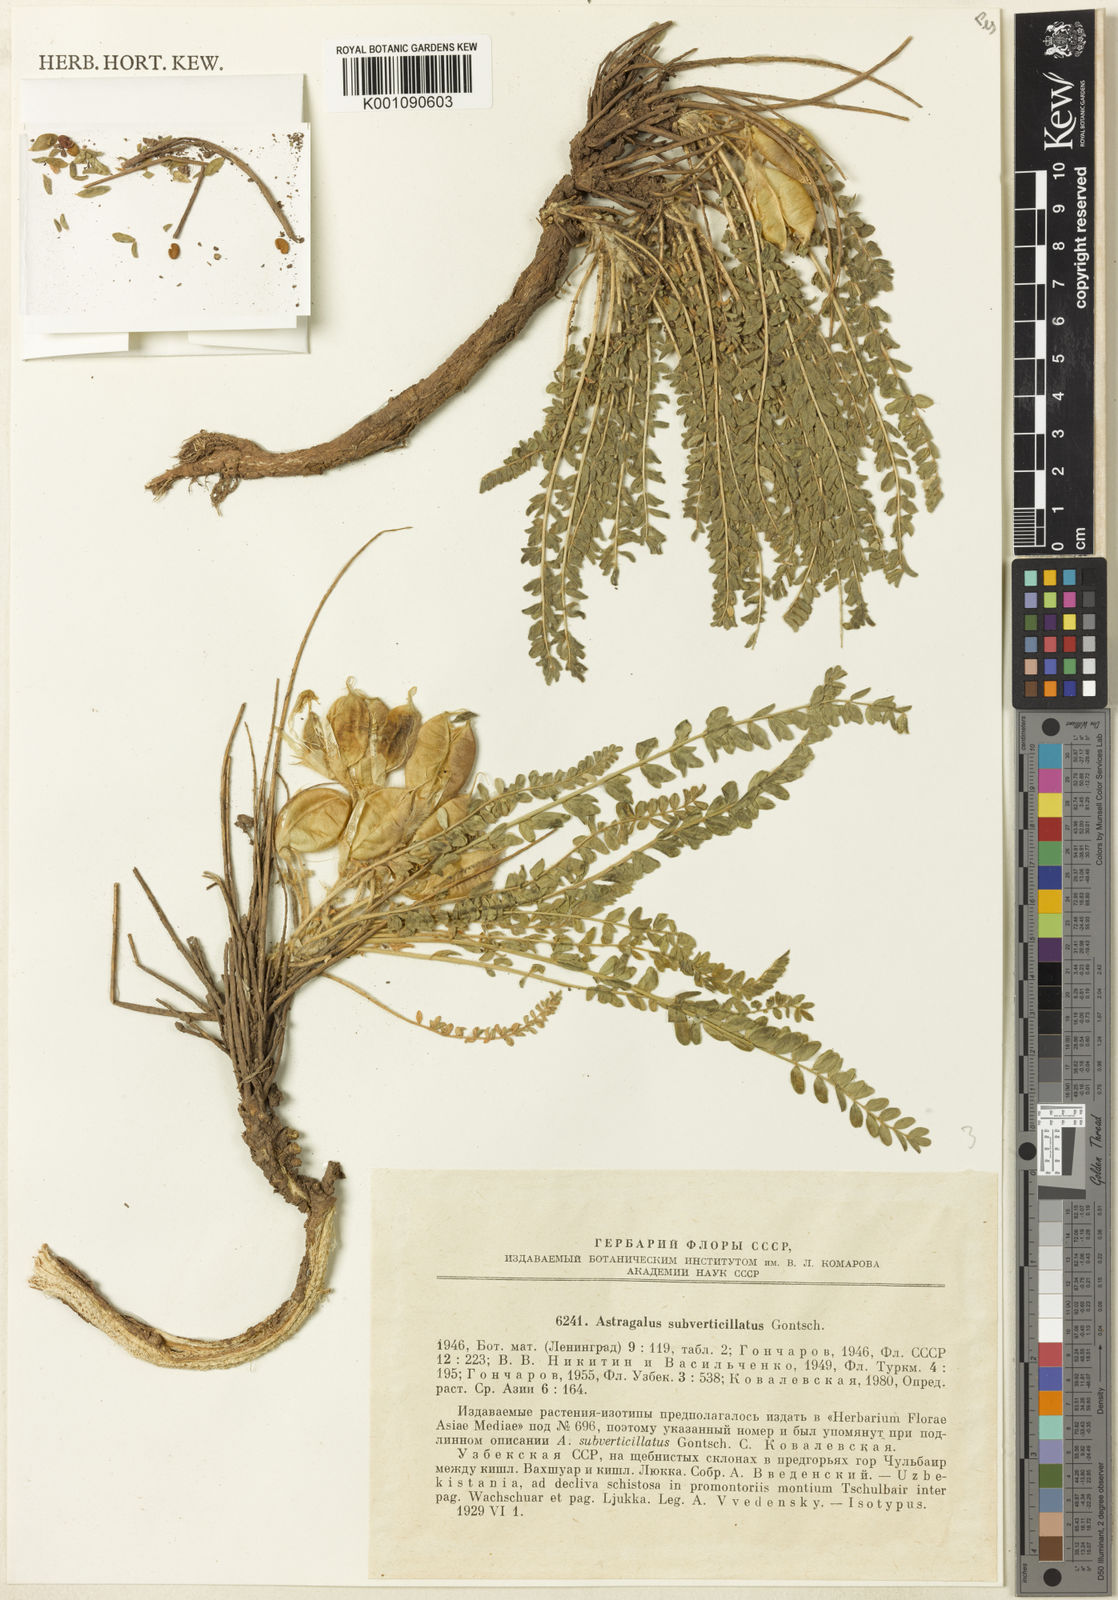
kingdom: Plantae
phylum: Tracheophyta
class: Magnoliopsida
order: Fabales
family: Fabaceae
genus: Astragalus
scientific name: Astragalus
